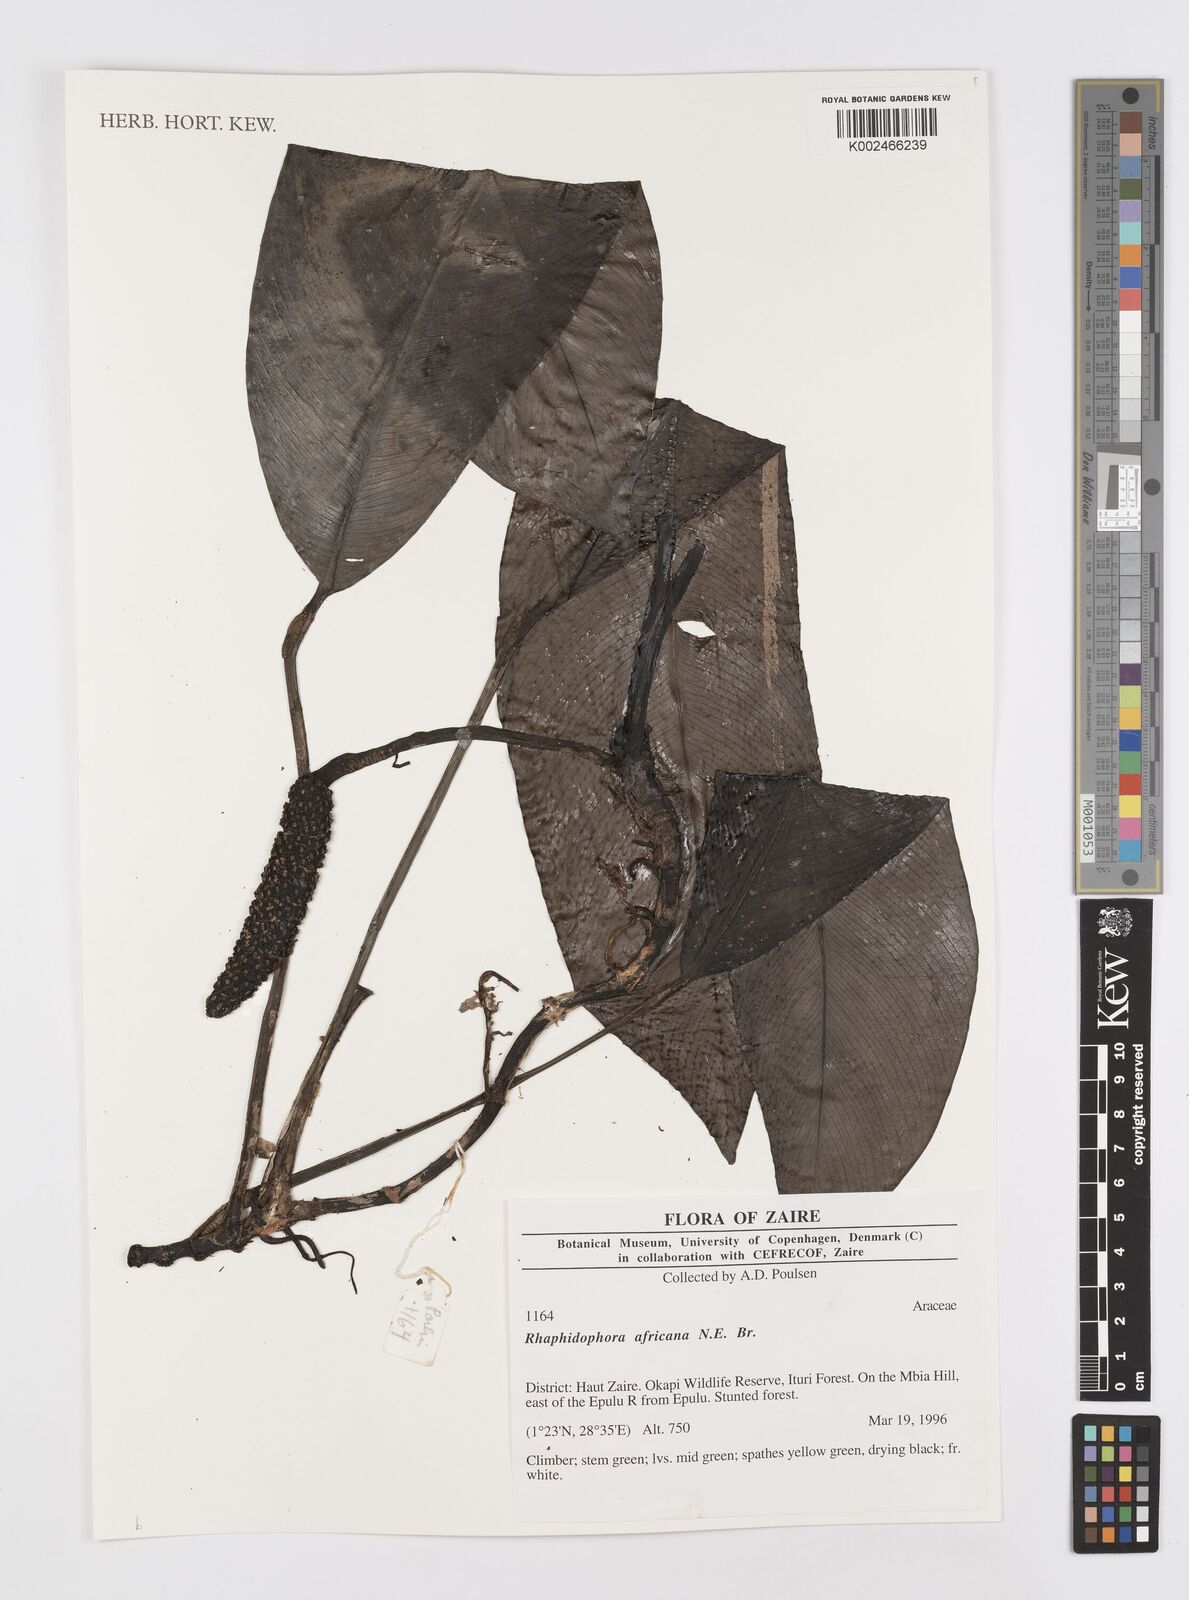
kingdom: Plantae
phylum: Tracheophyta
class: Liliopsida
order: Alismatales
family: Araceae
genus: Rhaphidophora
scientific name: Rhaphidophora africana
